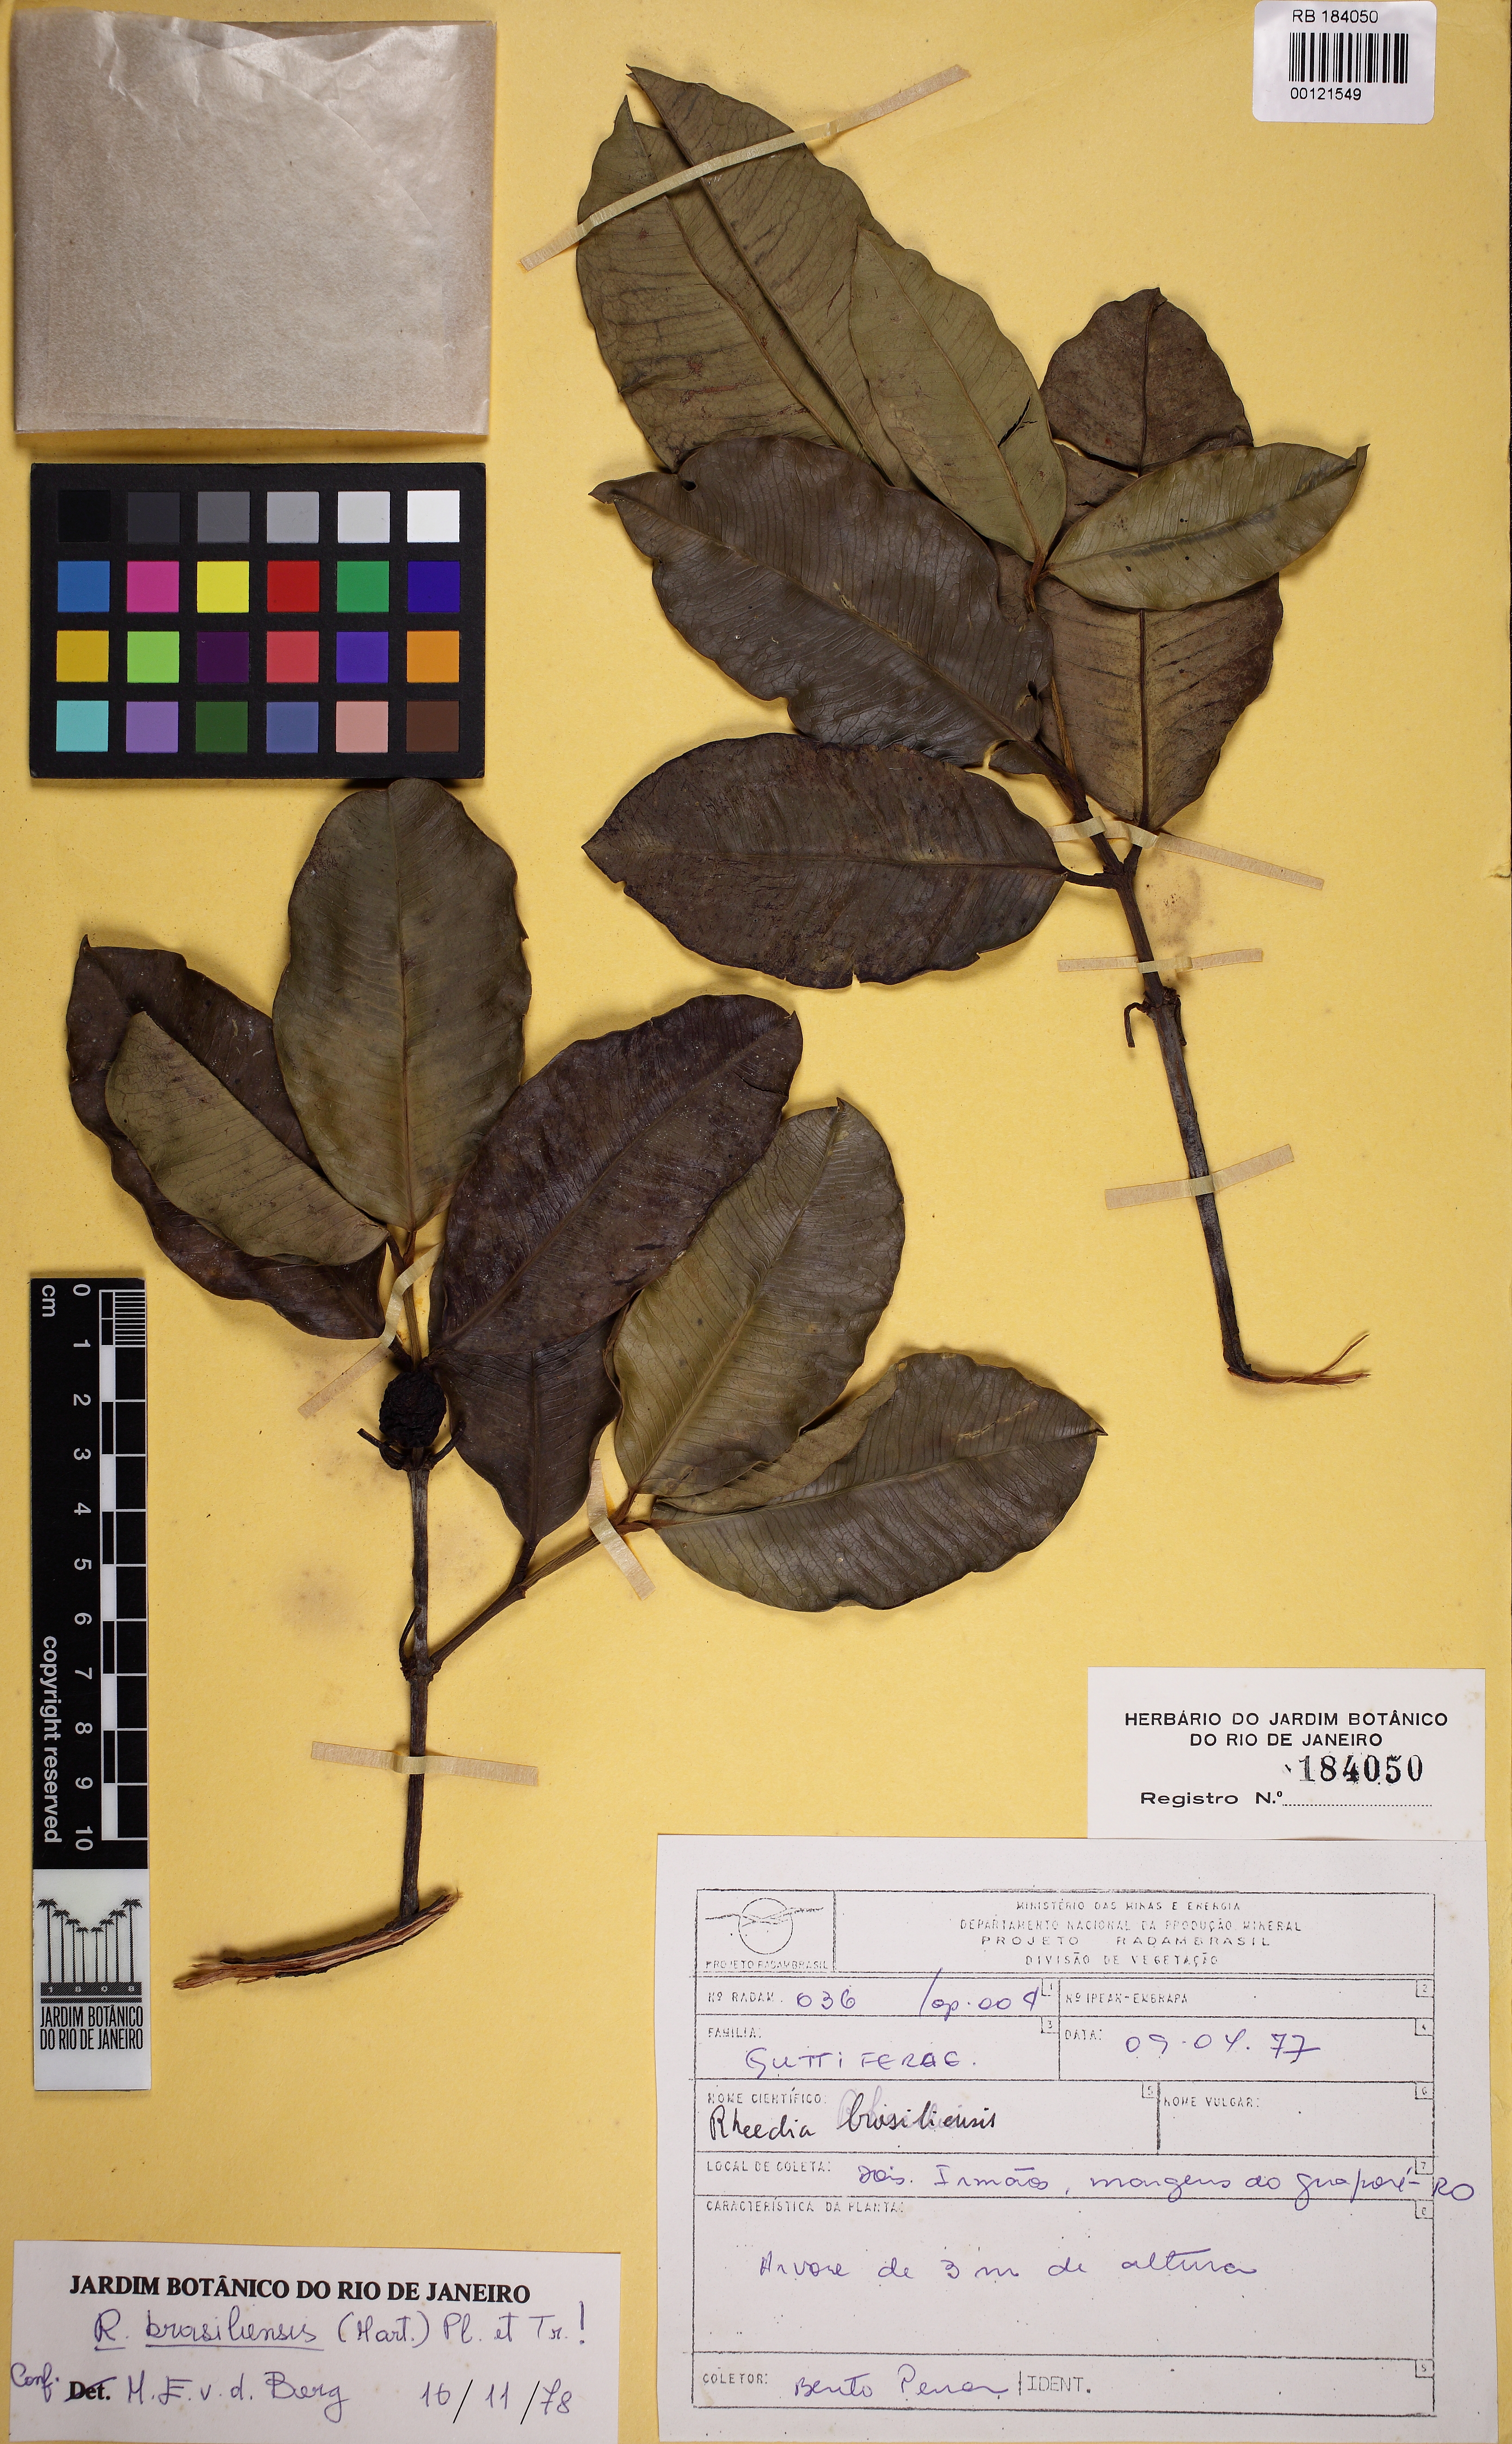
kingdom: Plantae
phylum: Tracheophyta
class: Magnoliopsida
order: Malpighiales
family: Clusiaceae
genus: Garcinia
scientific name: Garcinia brasiliensis
